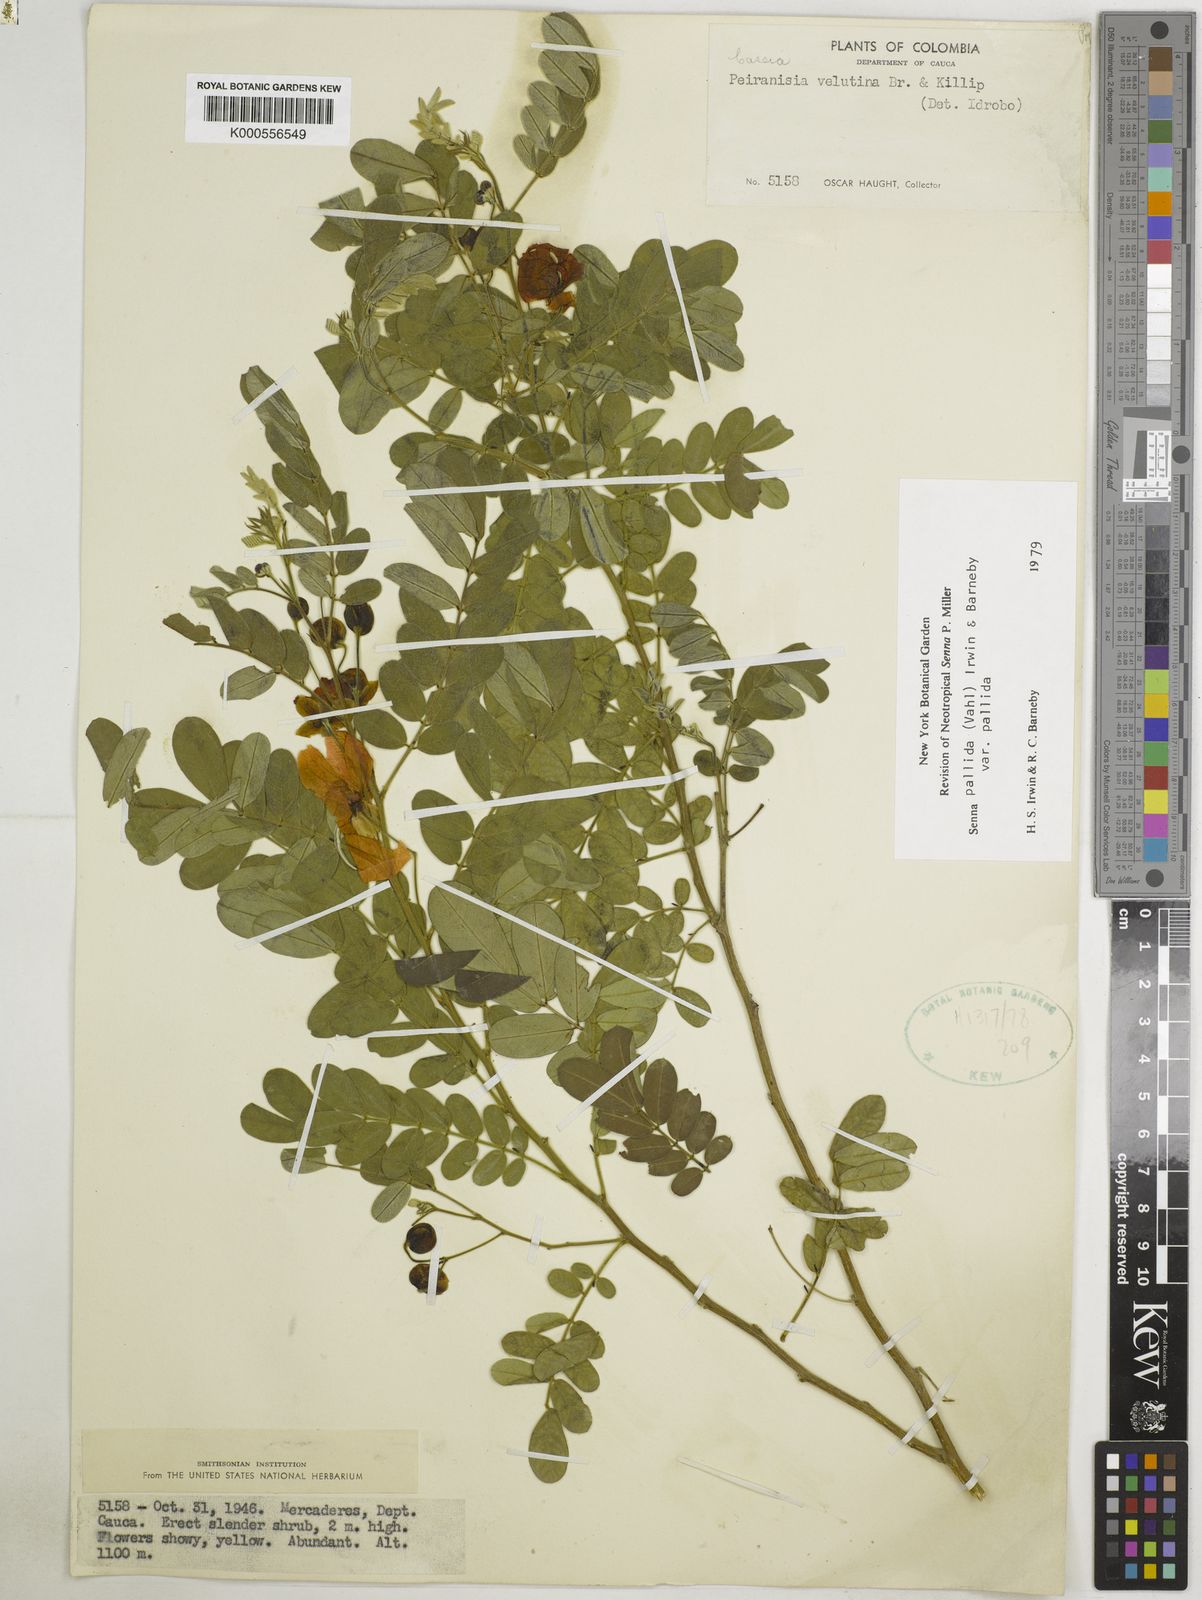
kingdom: Plantae
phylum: Tracheophyta
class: Magnoliopsida
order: Fabales
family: Fabaceae
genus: Senna
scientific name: Senna pallida
